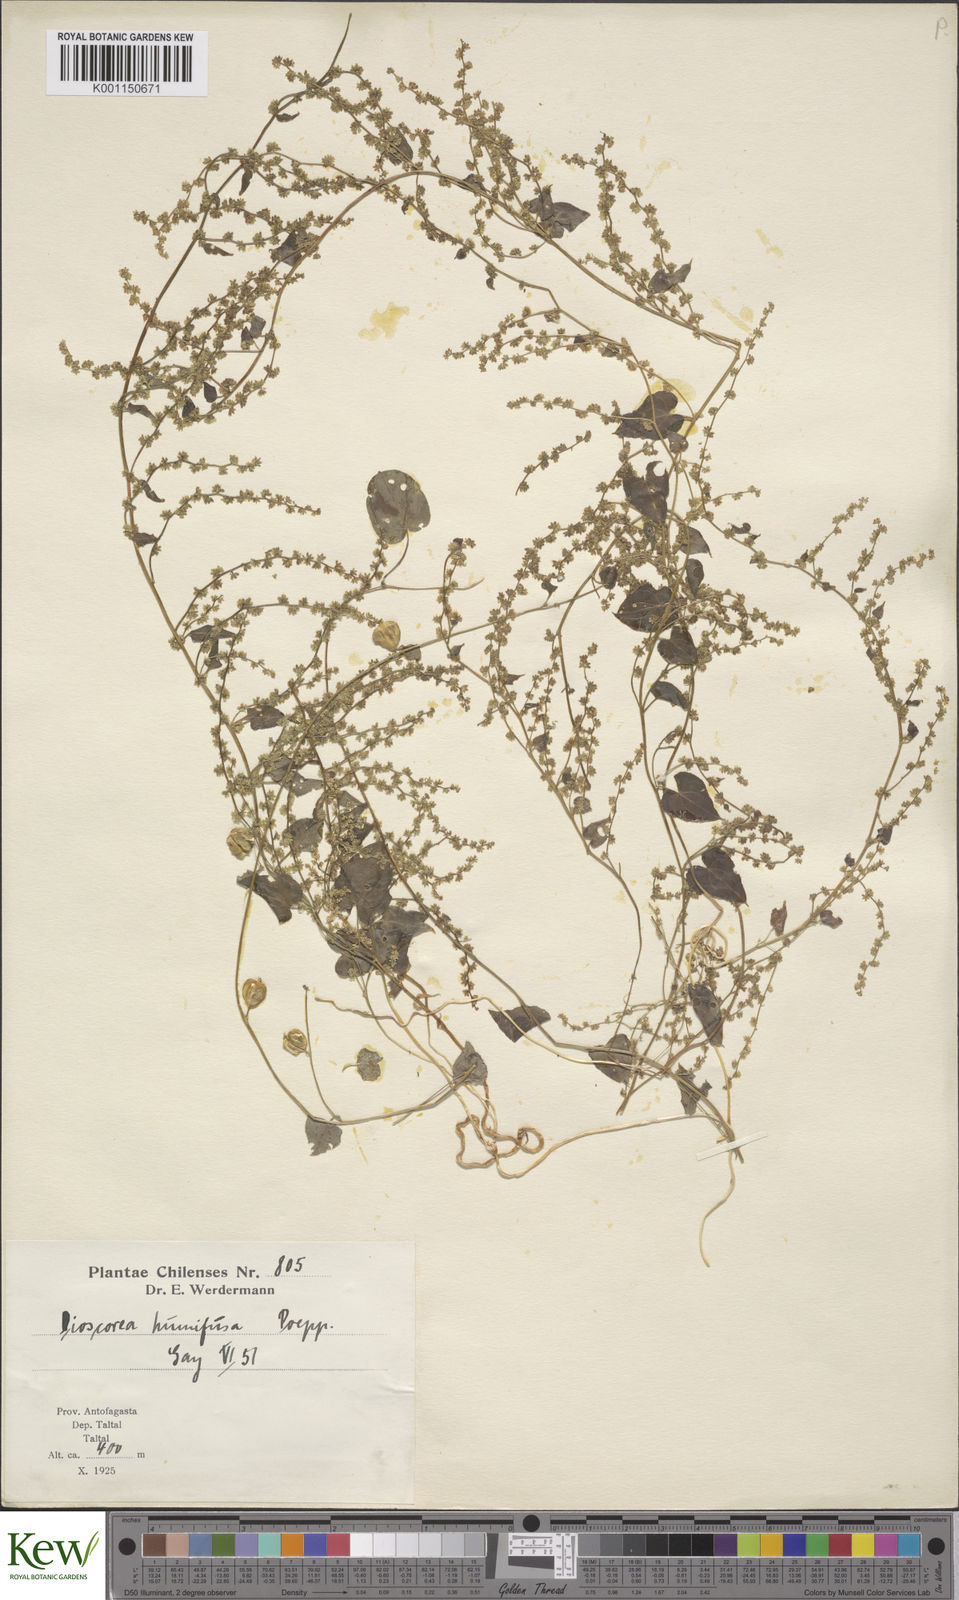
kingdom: Plantae
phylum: Tracheophyta
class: Liliopsida
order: Dioscoreales
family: Dioscoreaceae
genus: Dioscorea
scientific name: Dioscorea humifusa
